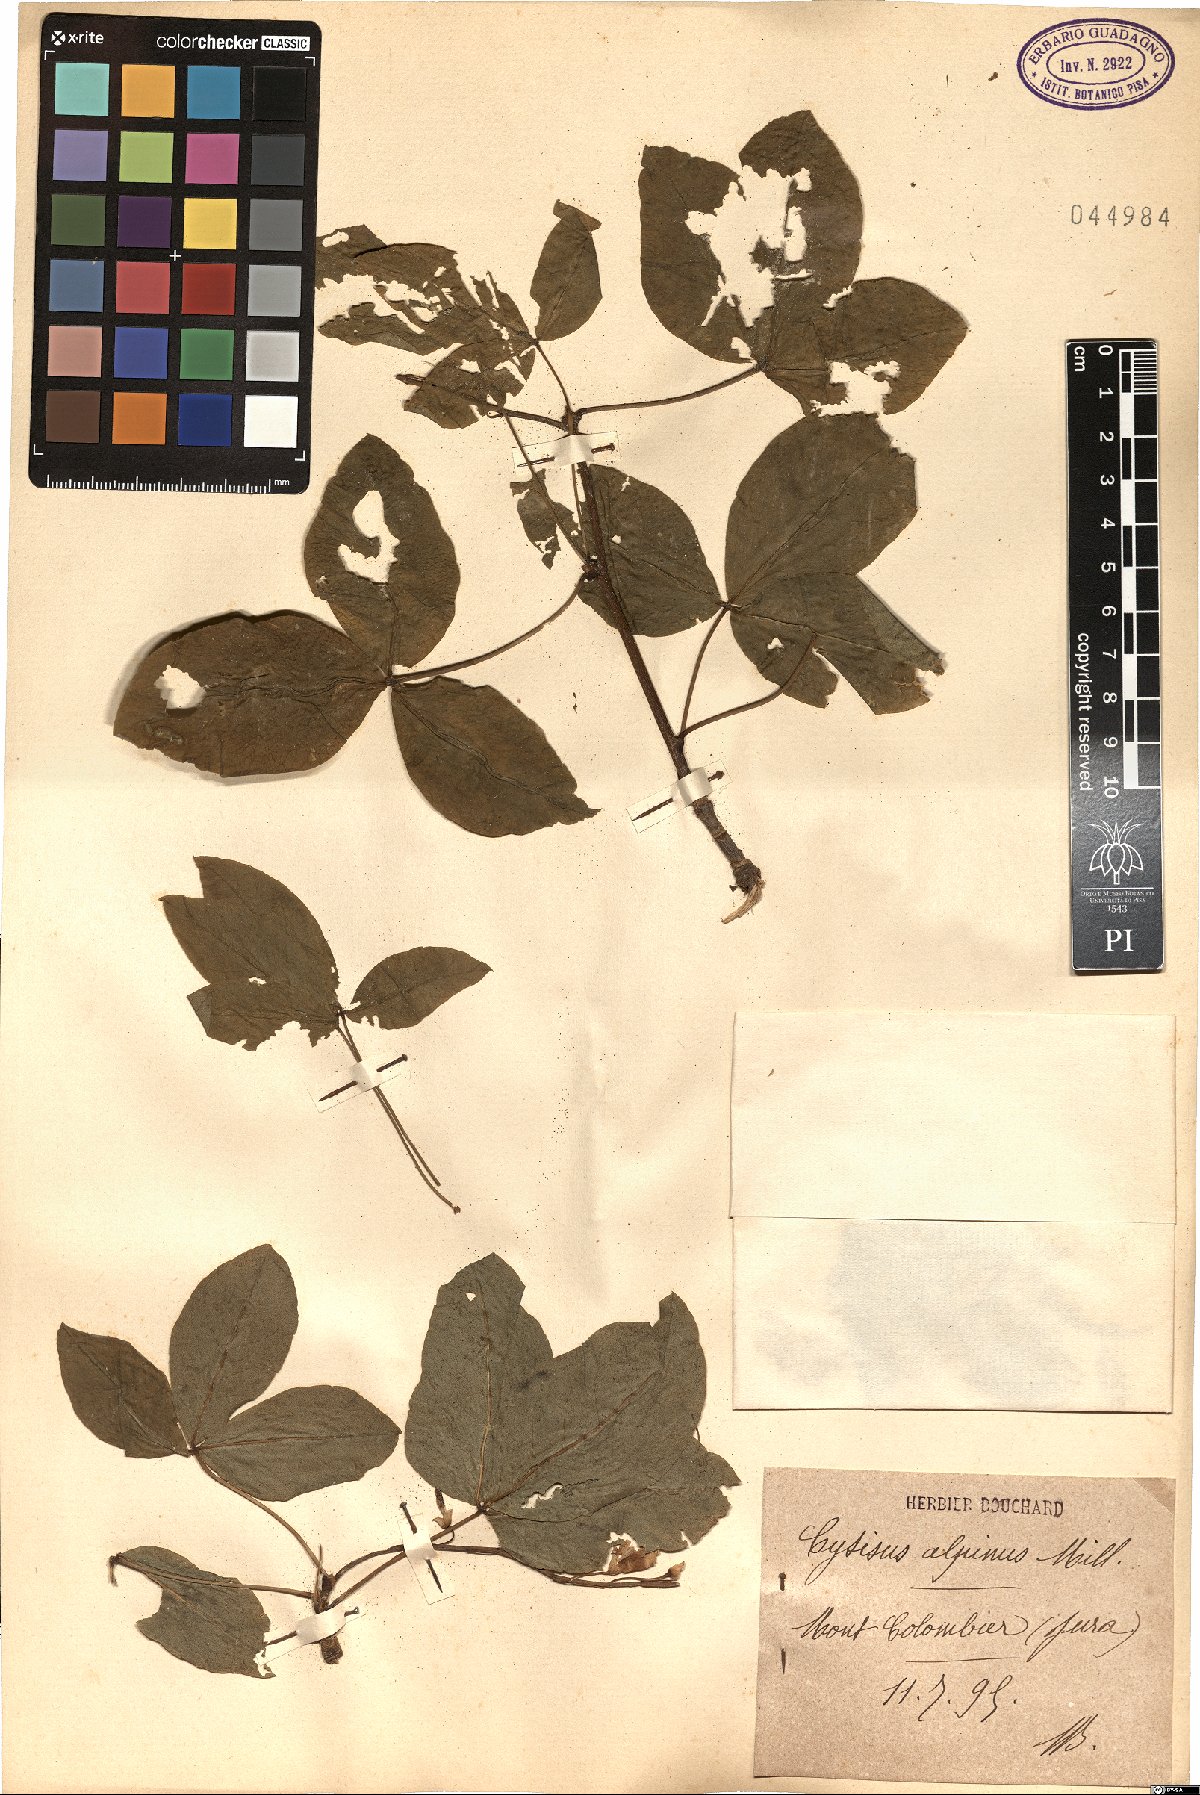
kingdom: Plantae
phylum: Tracheophyta
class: Magnoliopsida
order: Fabales
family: Fabaceae
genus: Laburnum
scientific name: Laburnum alpinum
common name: Scottish laburnum
